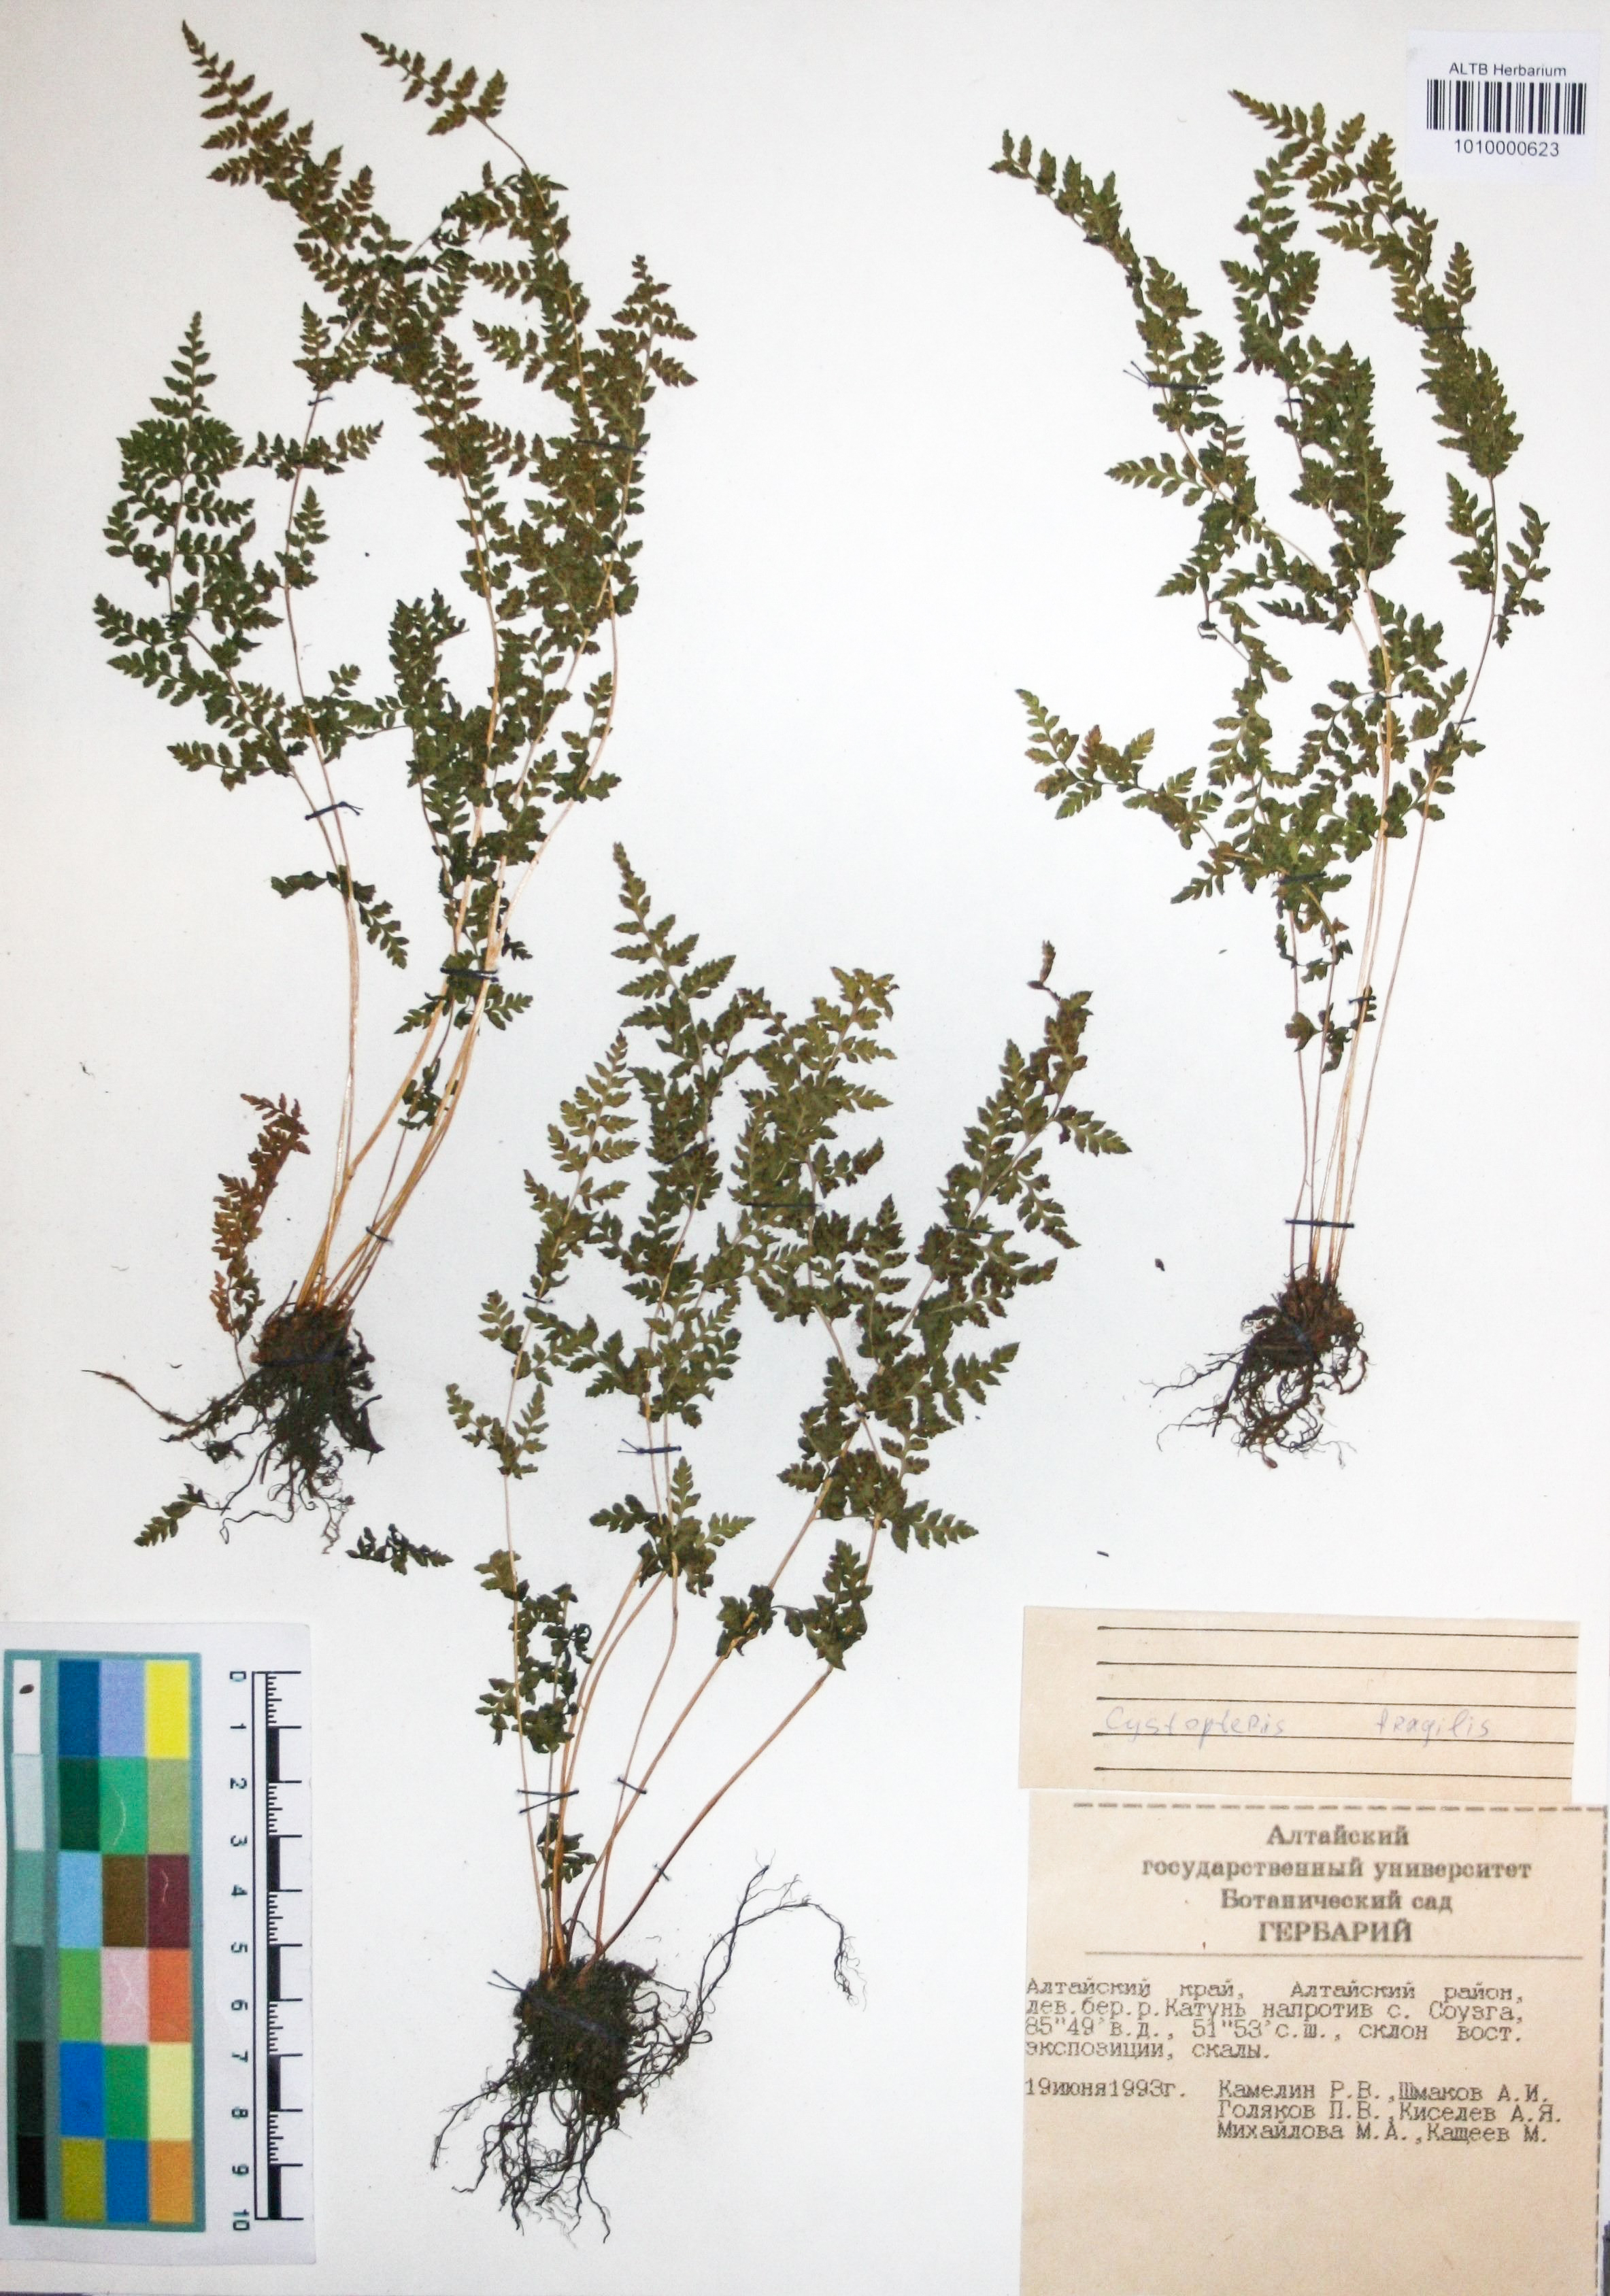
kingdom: Plantae
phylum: Tracheophyta
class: Polypodiopsida
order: Polypodiales
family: Cystopteridaceae
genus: Cystopteris
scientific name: Cystopteris fragilis
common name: Brittle bladder fern
